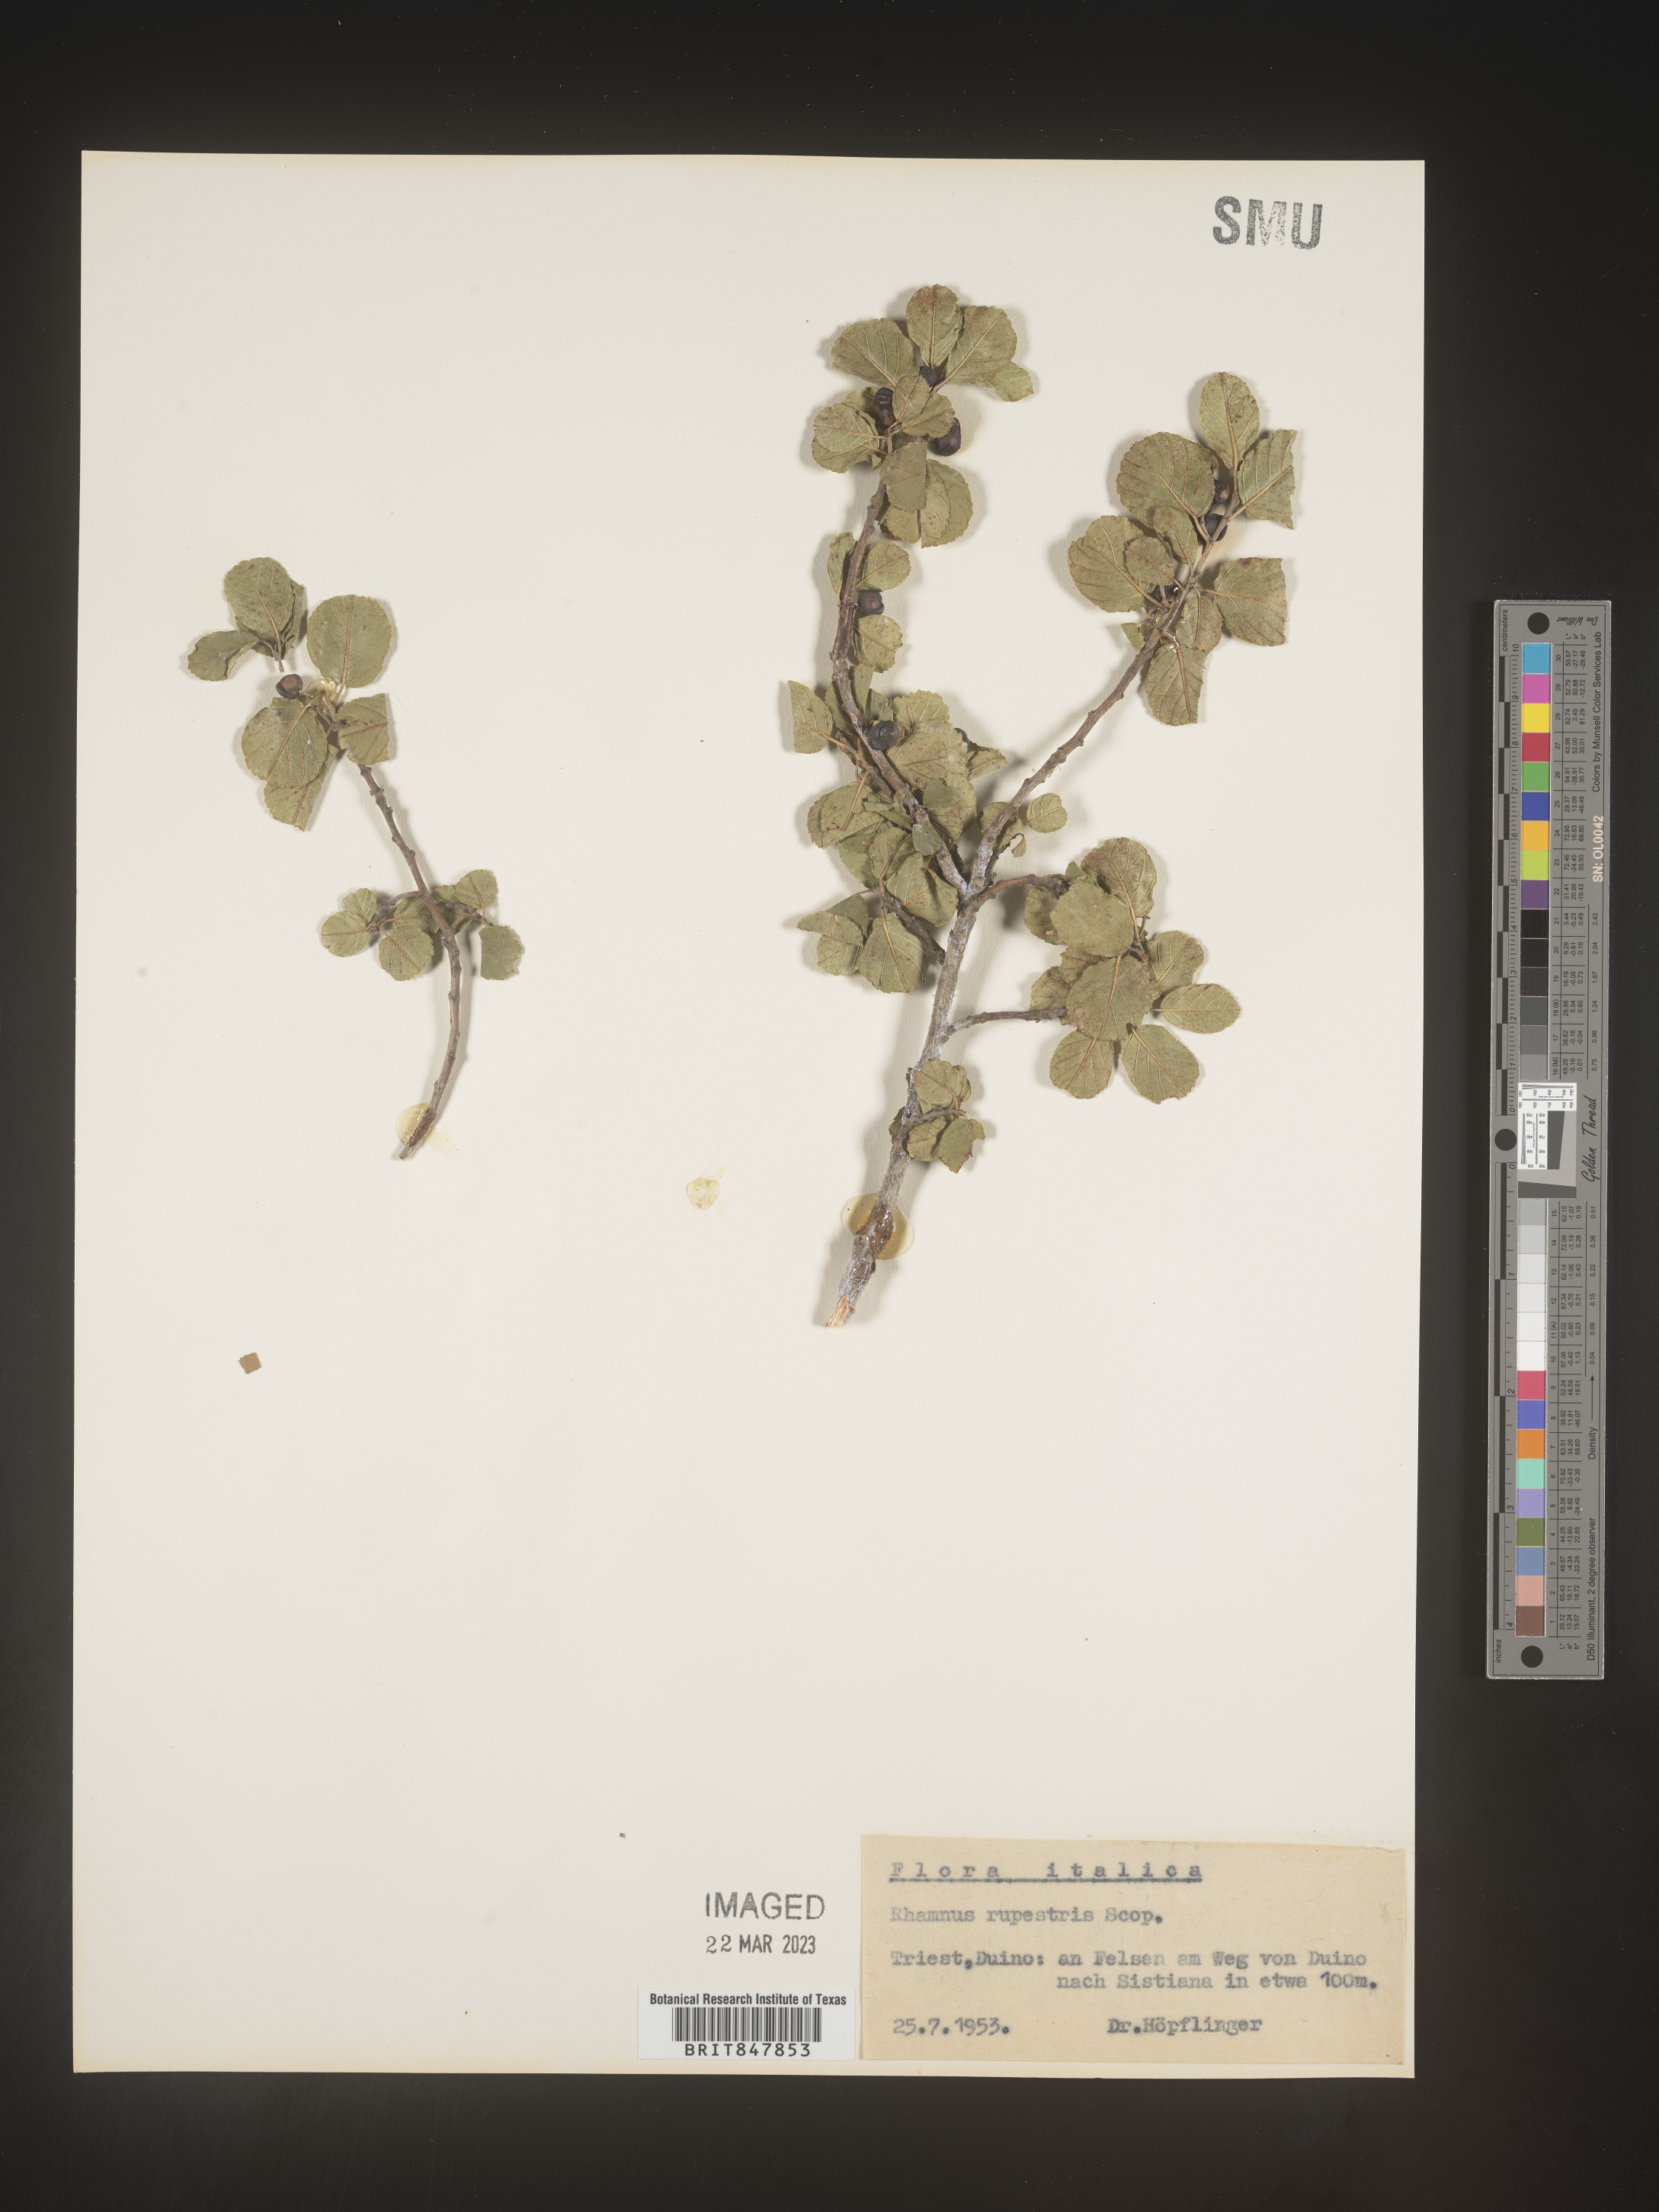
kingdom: Plantae
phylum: Tracheophyta
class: Magnoliopsida
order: Rosales
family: Rhamnaceae
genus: Rhamnus
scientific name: Rhamnus
